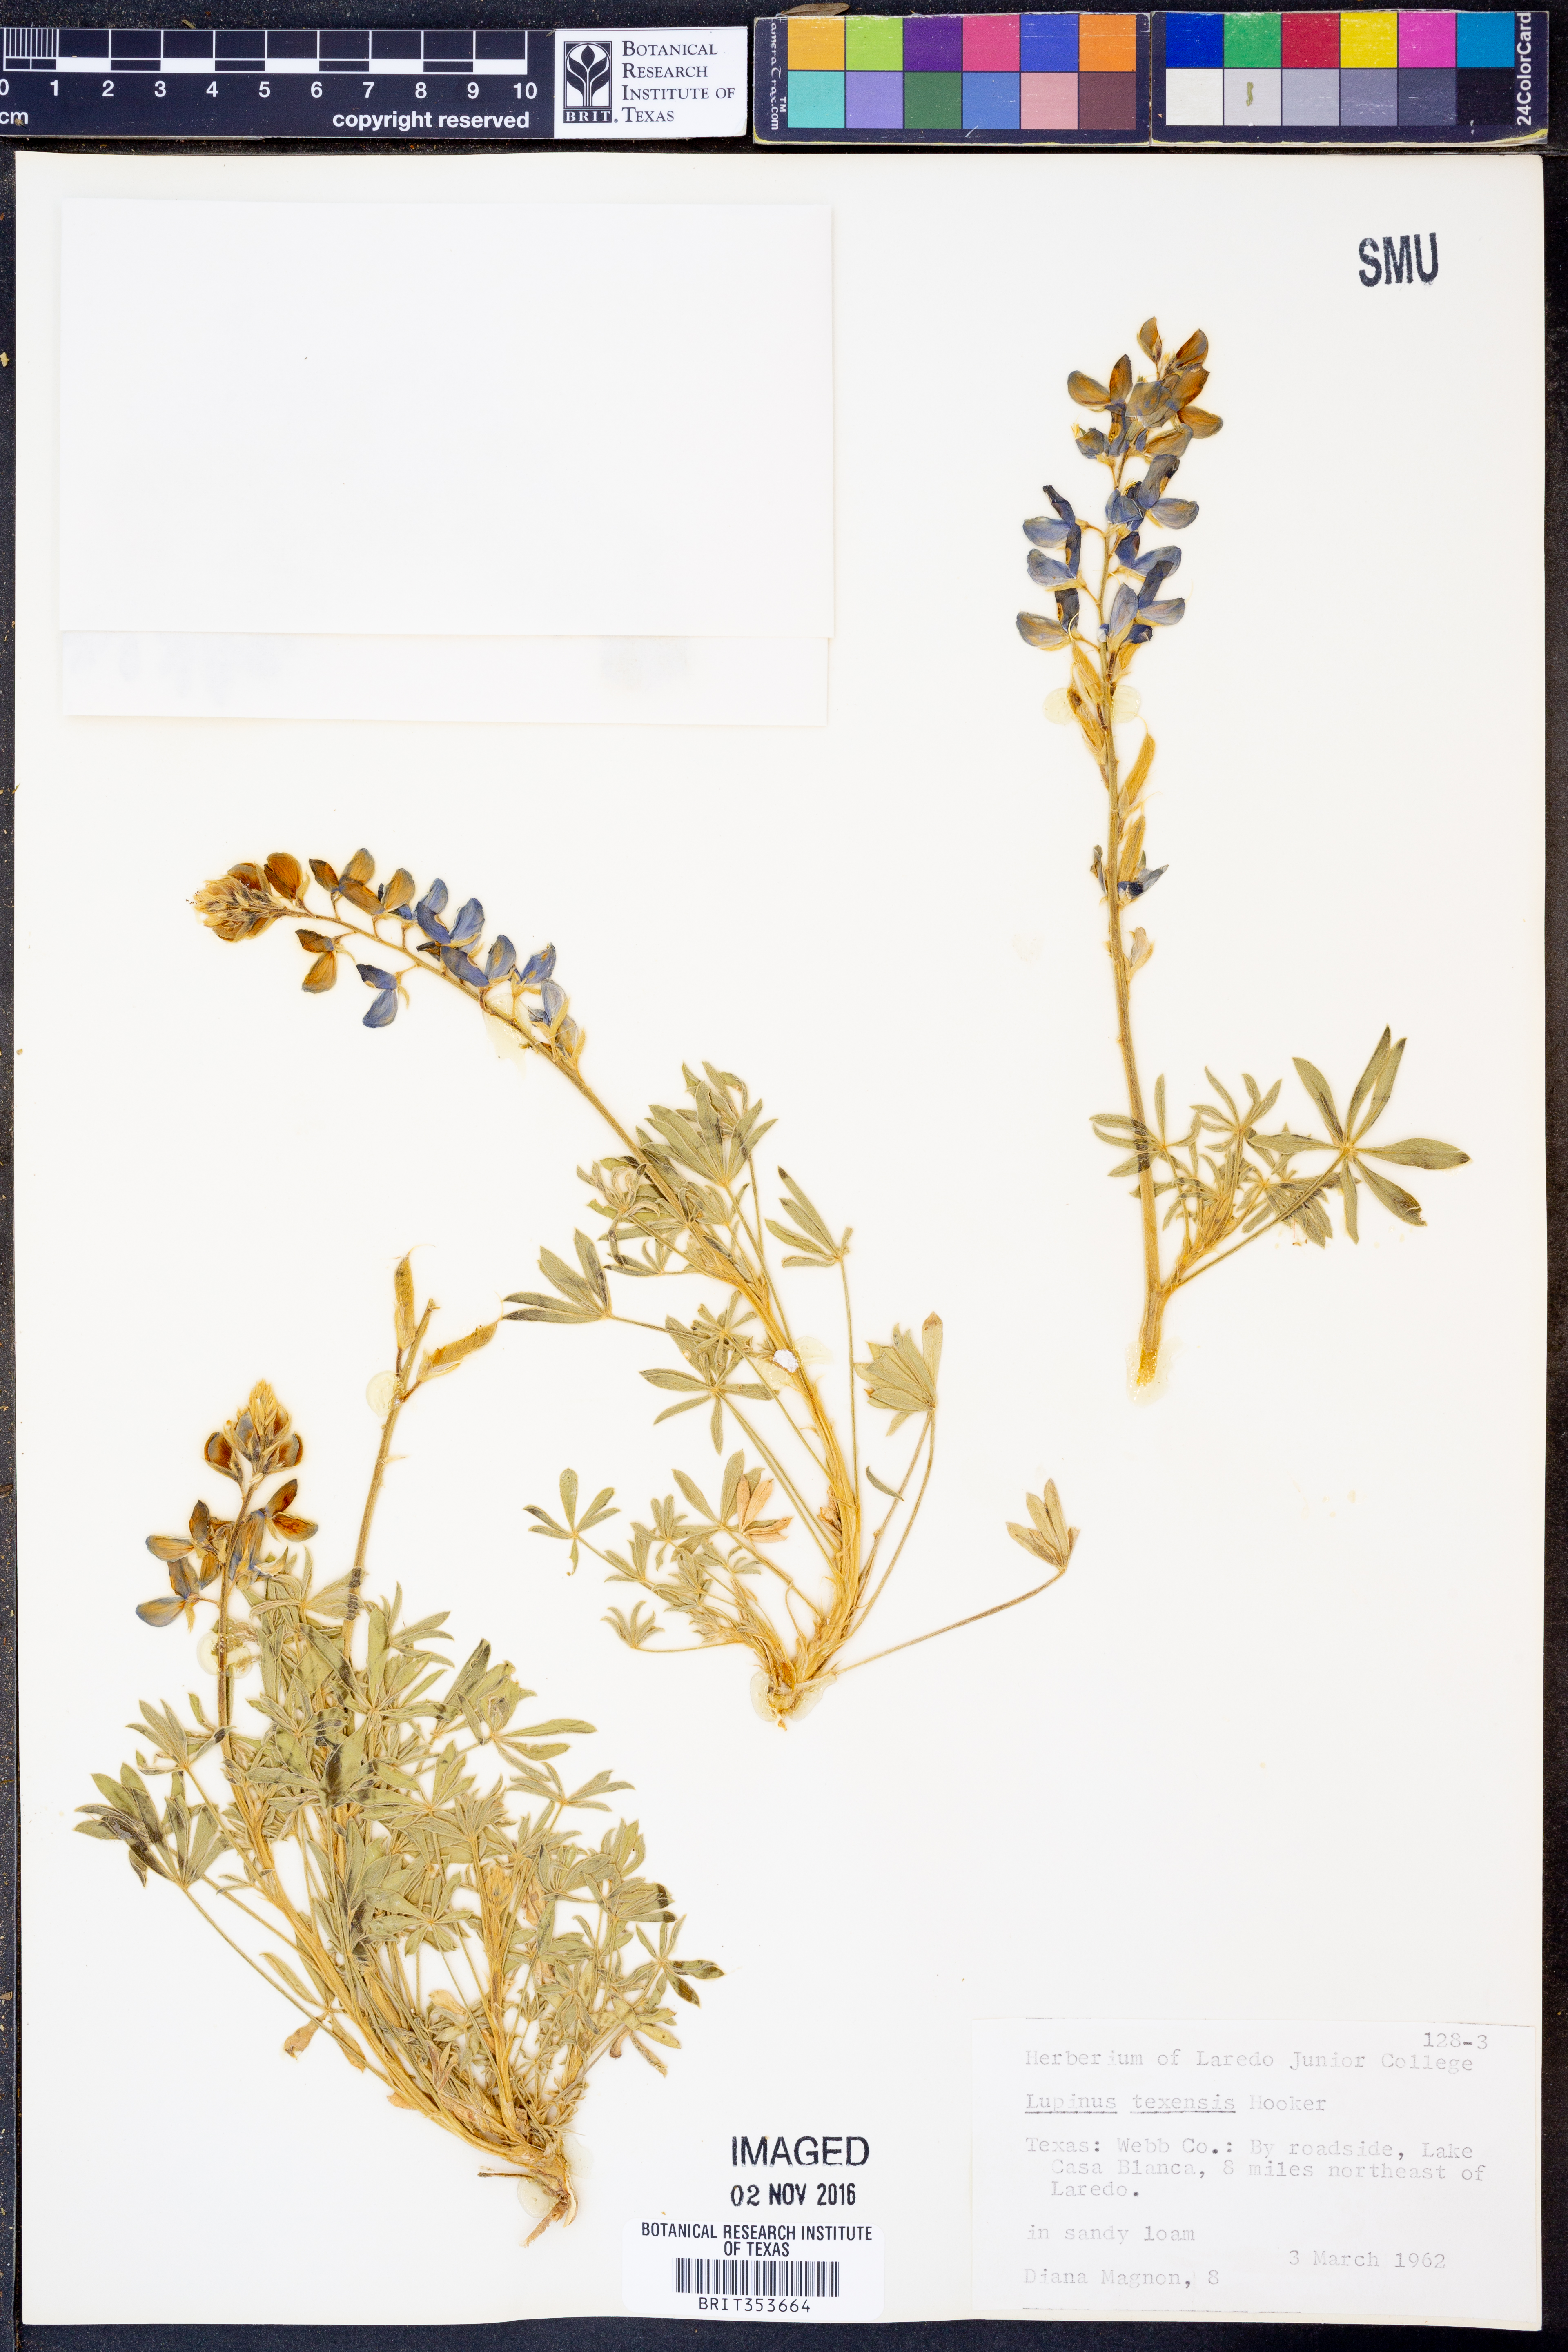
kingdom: Plantae
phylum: Tracheophyta
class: Magnoliopsida
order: Fabales
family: Fabaceae
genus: Lupinus
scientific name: Lupinus texensis
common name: Texas bluebonnet
